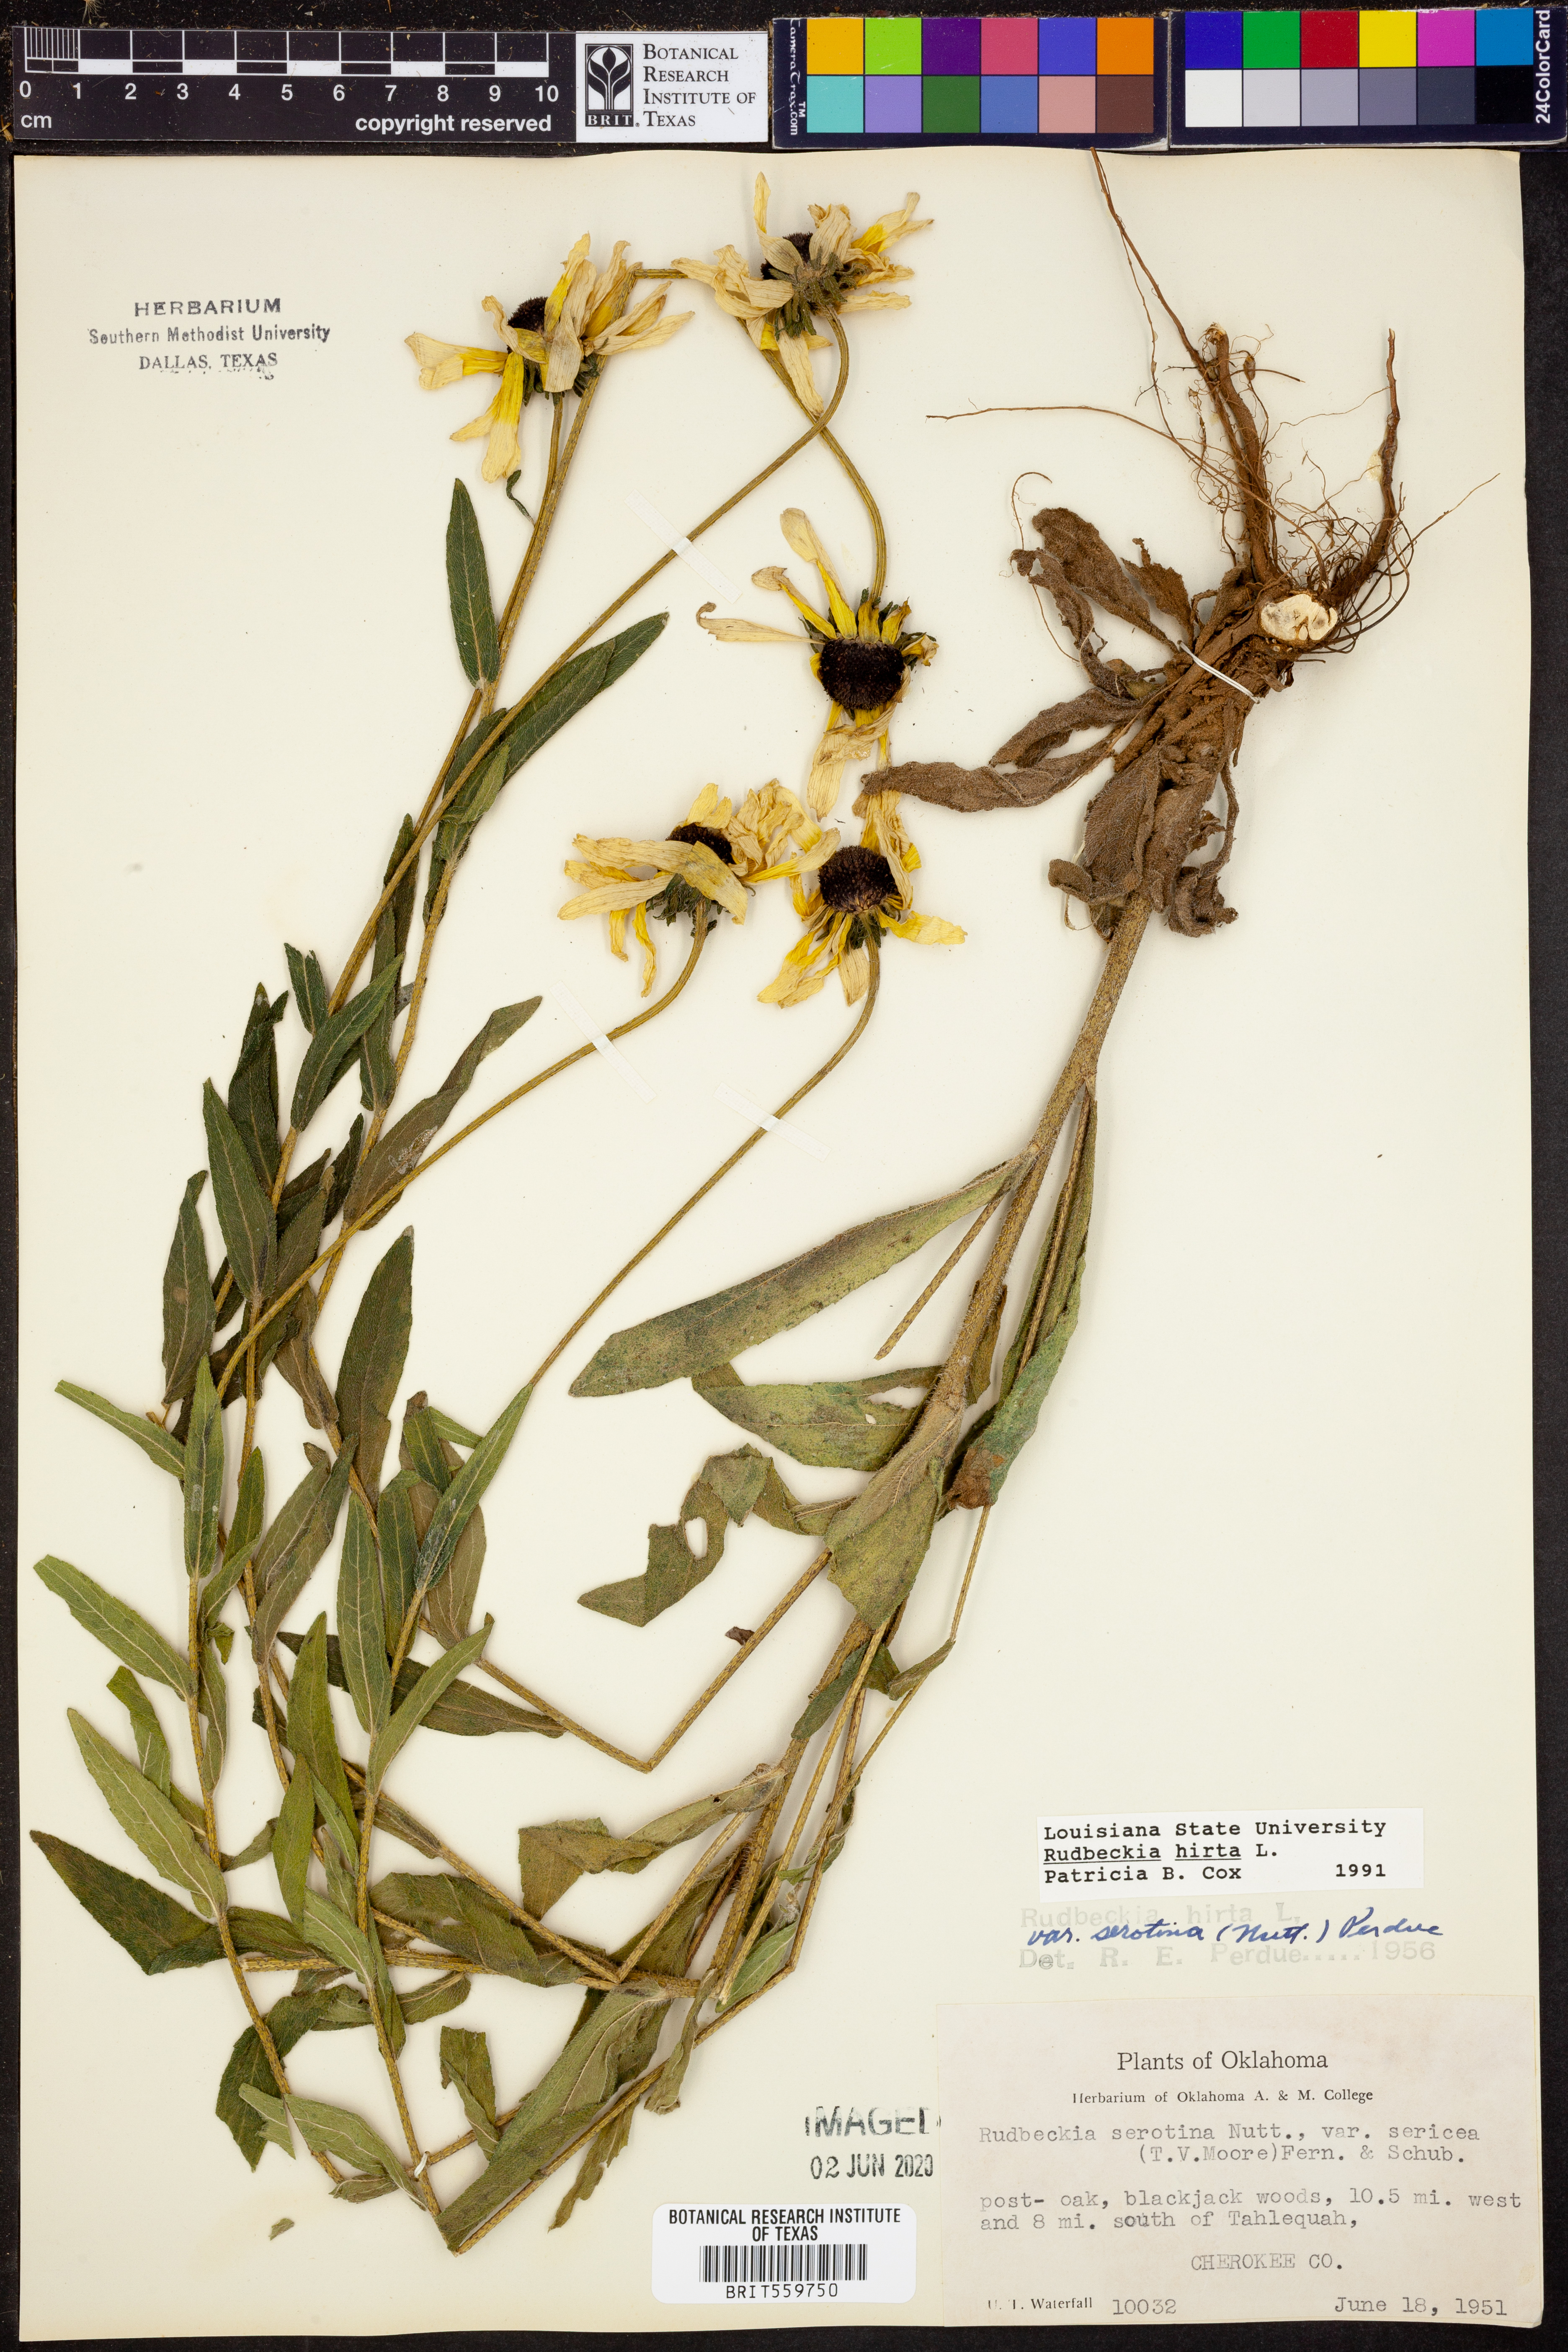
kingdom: Plantae
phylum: Tracheophyta
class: Magnoliopsida
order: Asterales
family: Asteraceae
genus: Rudbeckia
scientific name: Rudbeckia hirta
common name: Black-eyed-susan
